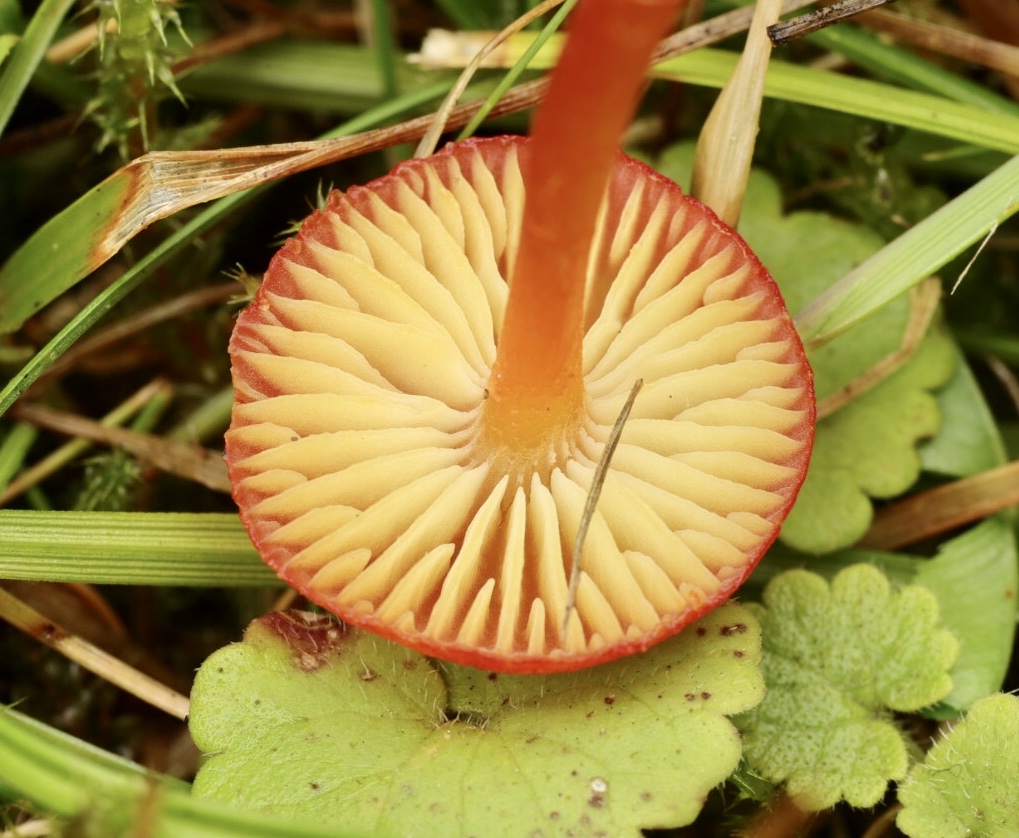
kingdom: Fungi
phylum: Basidiomycota
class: Agaricomycetes
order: Agaricales
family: Hygrophoraceae
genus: Hygrocybe
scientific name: Hygrocybe helobia
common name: hvidløgs-vokshat
